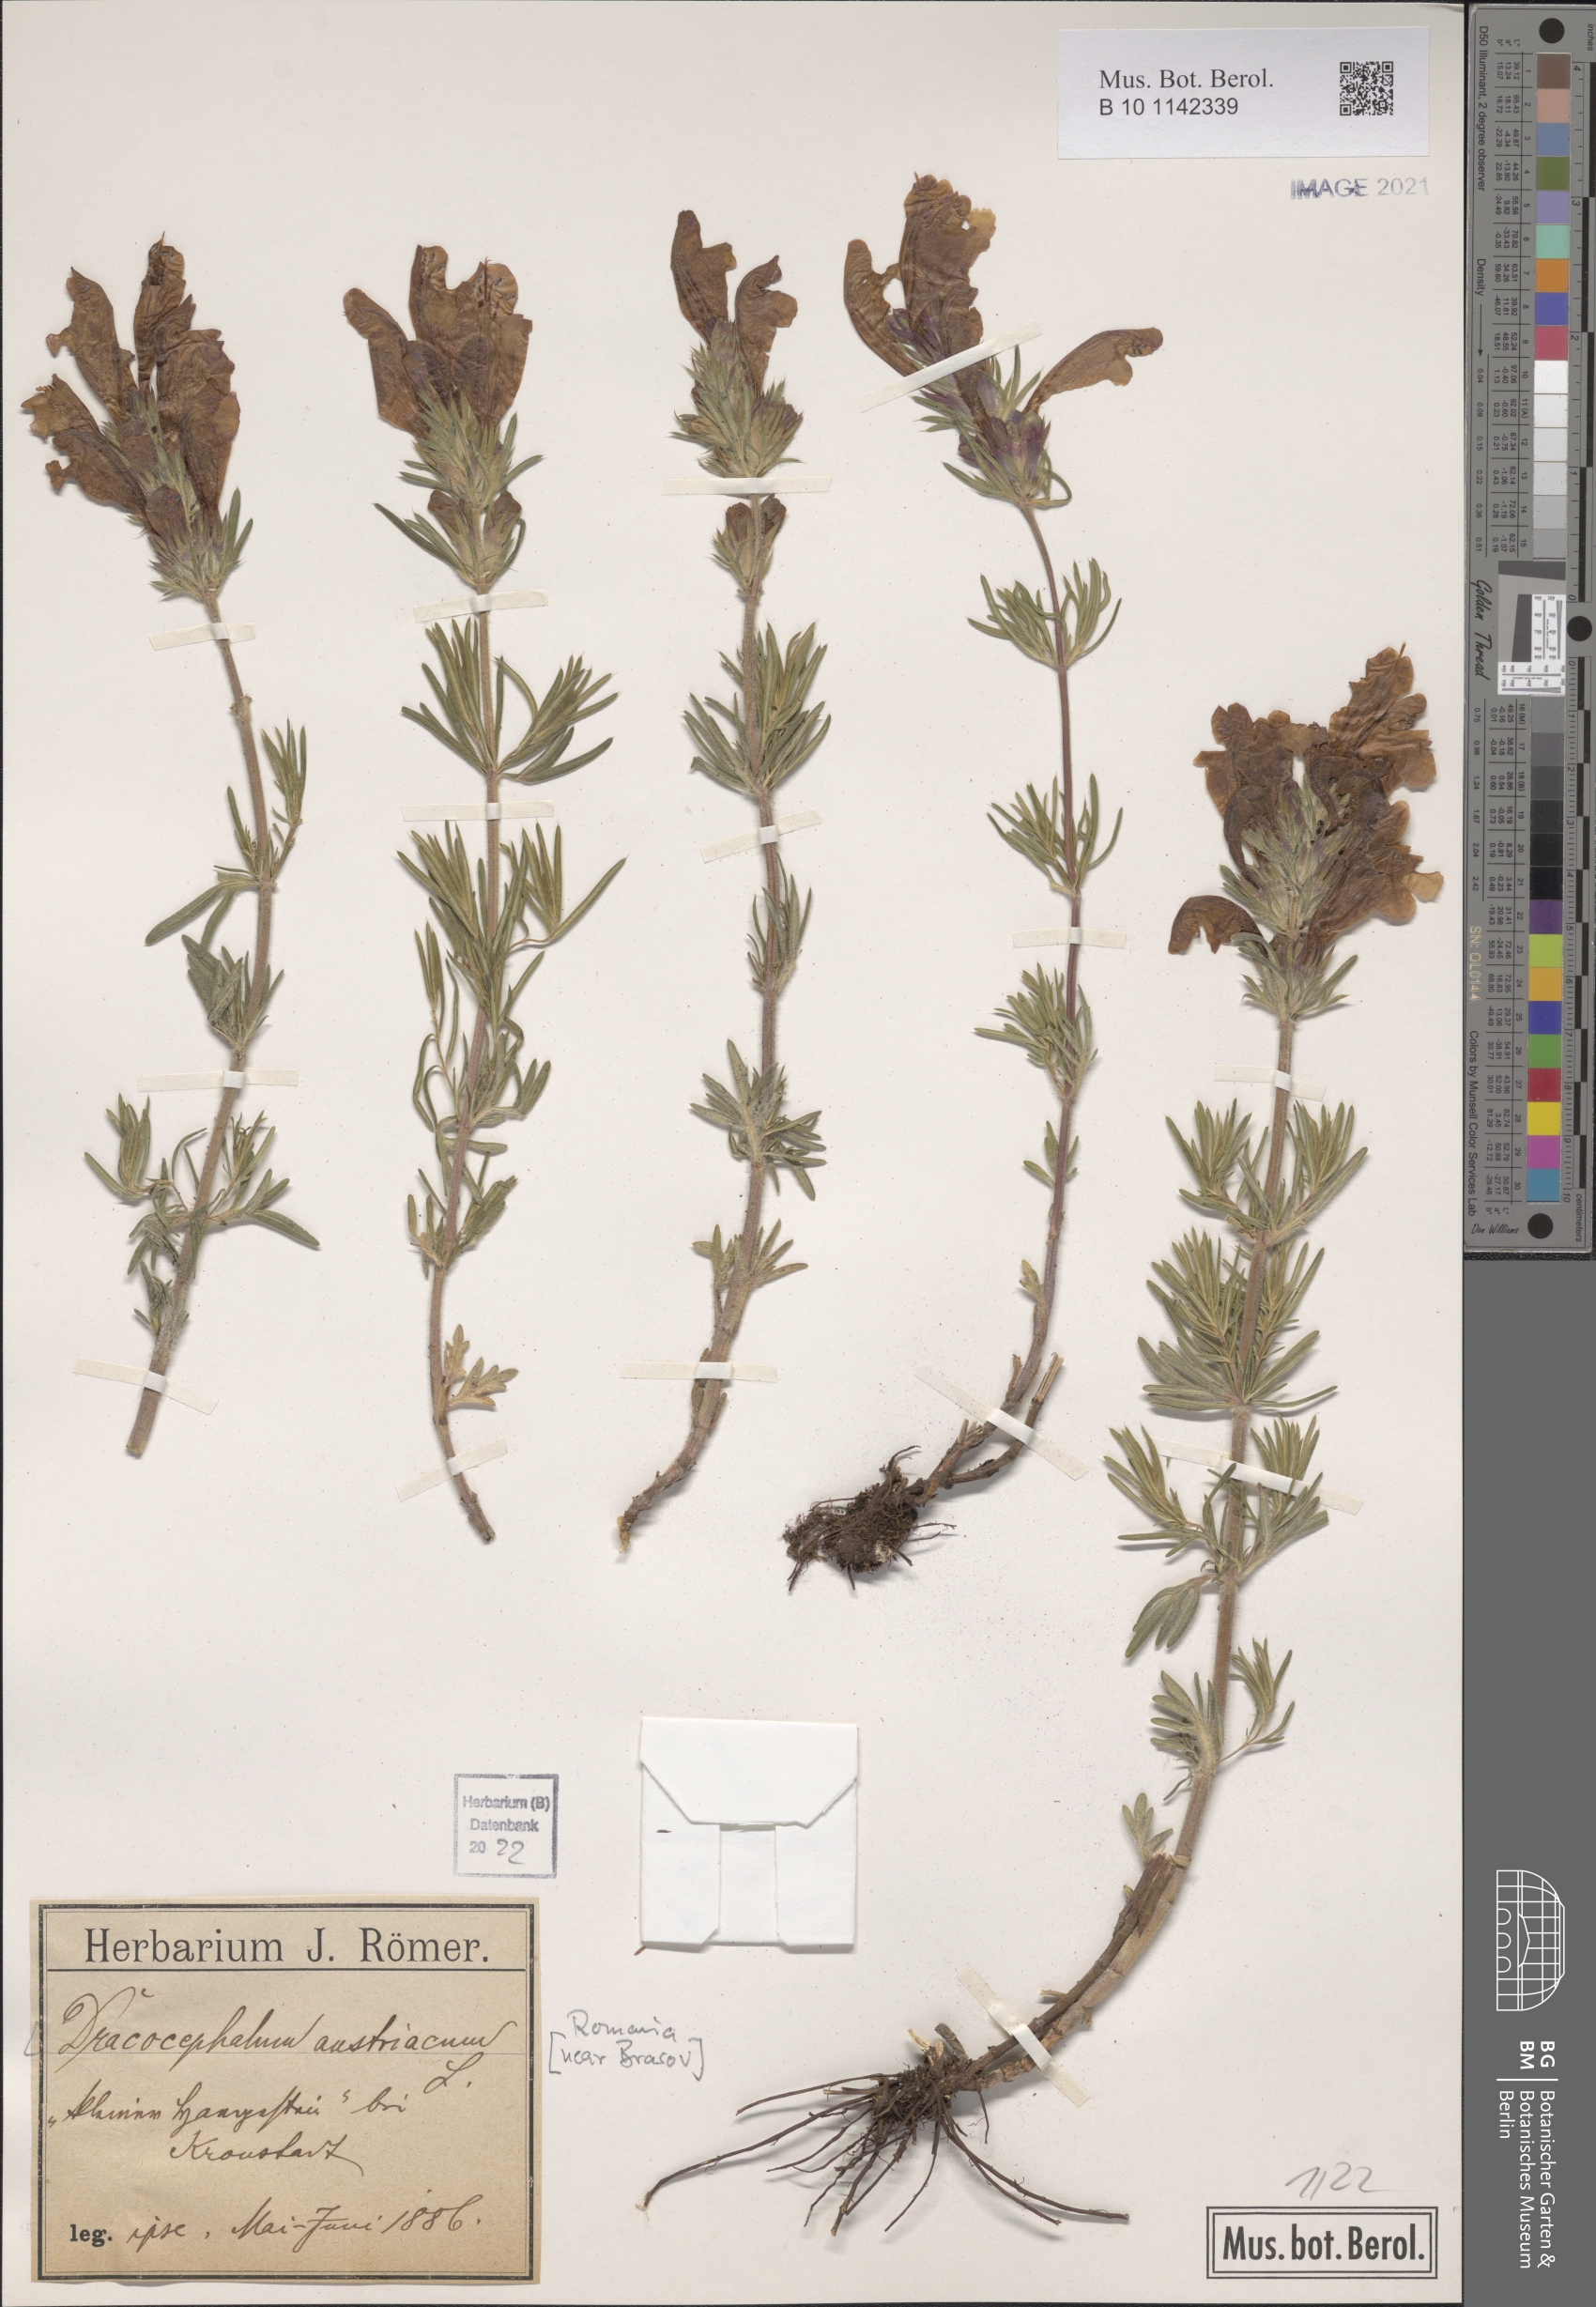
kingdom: Plantae
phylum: Tracheophyta
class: Magnoliopsida
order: Lamiales
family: Lamiaceae
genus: Dracocephalum
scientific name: Dracocephalum austriacum
